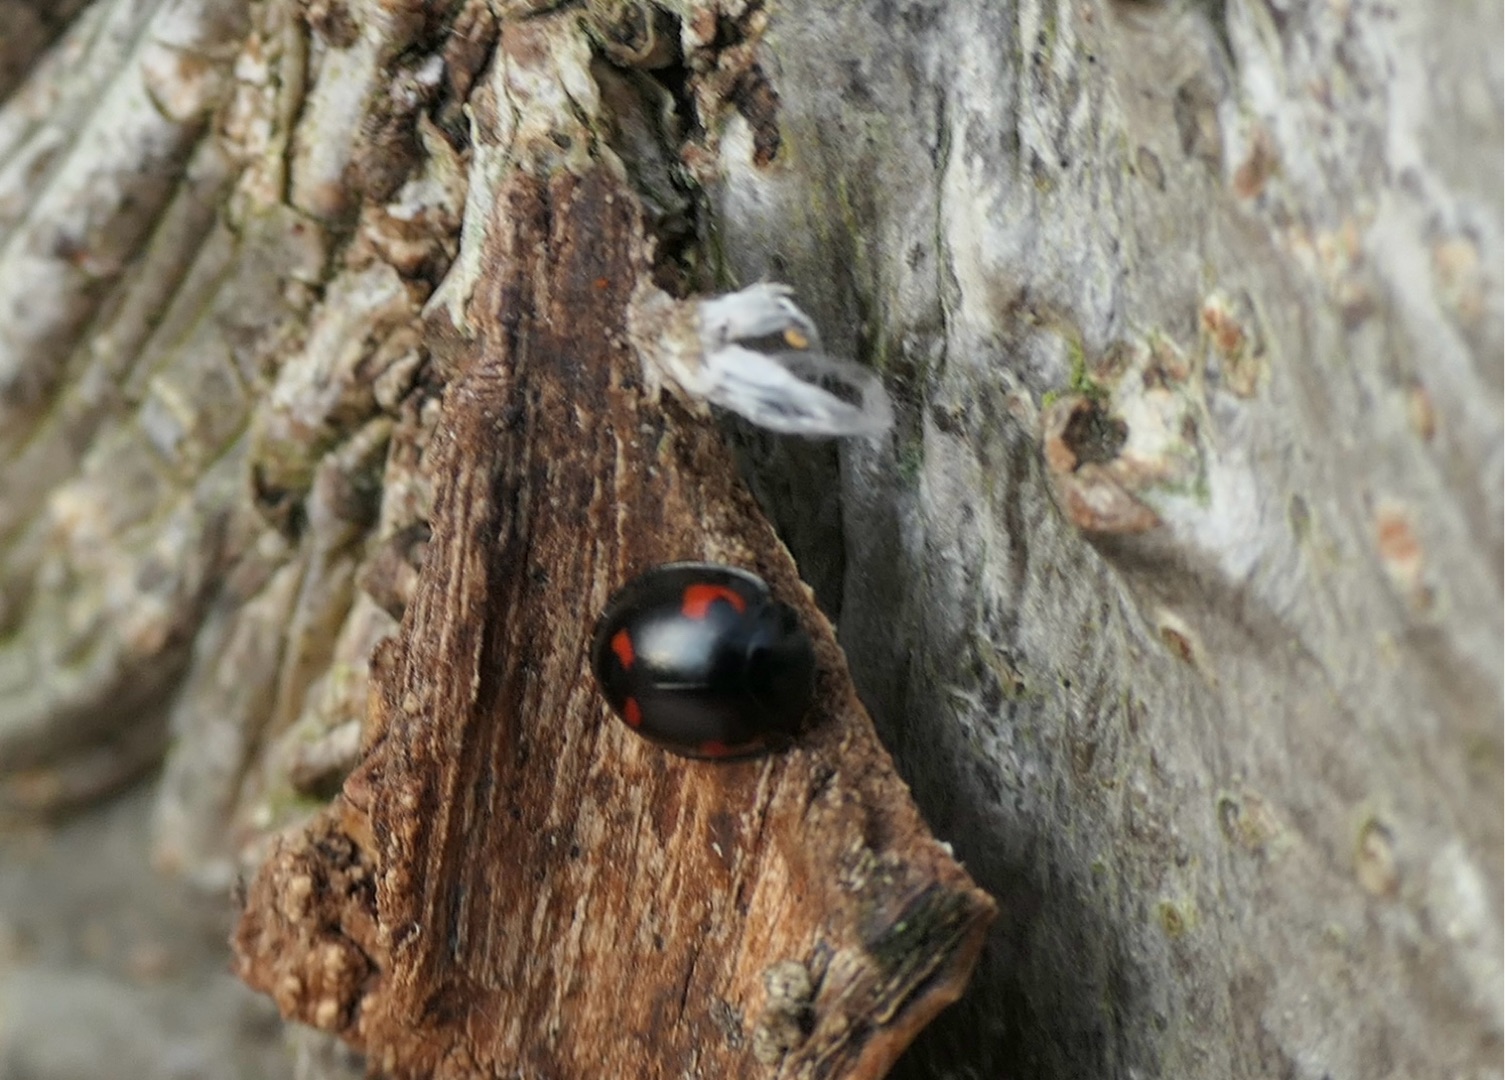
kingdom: Animalia
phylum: Arthropoda
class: Insecta
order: Coleoptera
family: Coccinellidae
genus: Brumus
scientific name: Brumus quadripustulatus
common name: Fireplettet mariehøne
